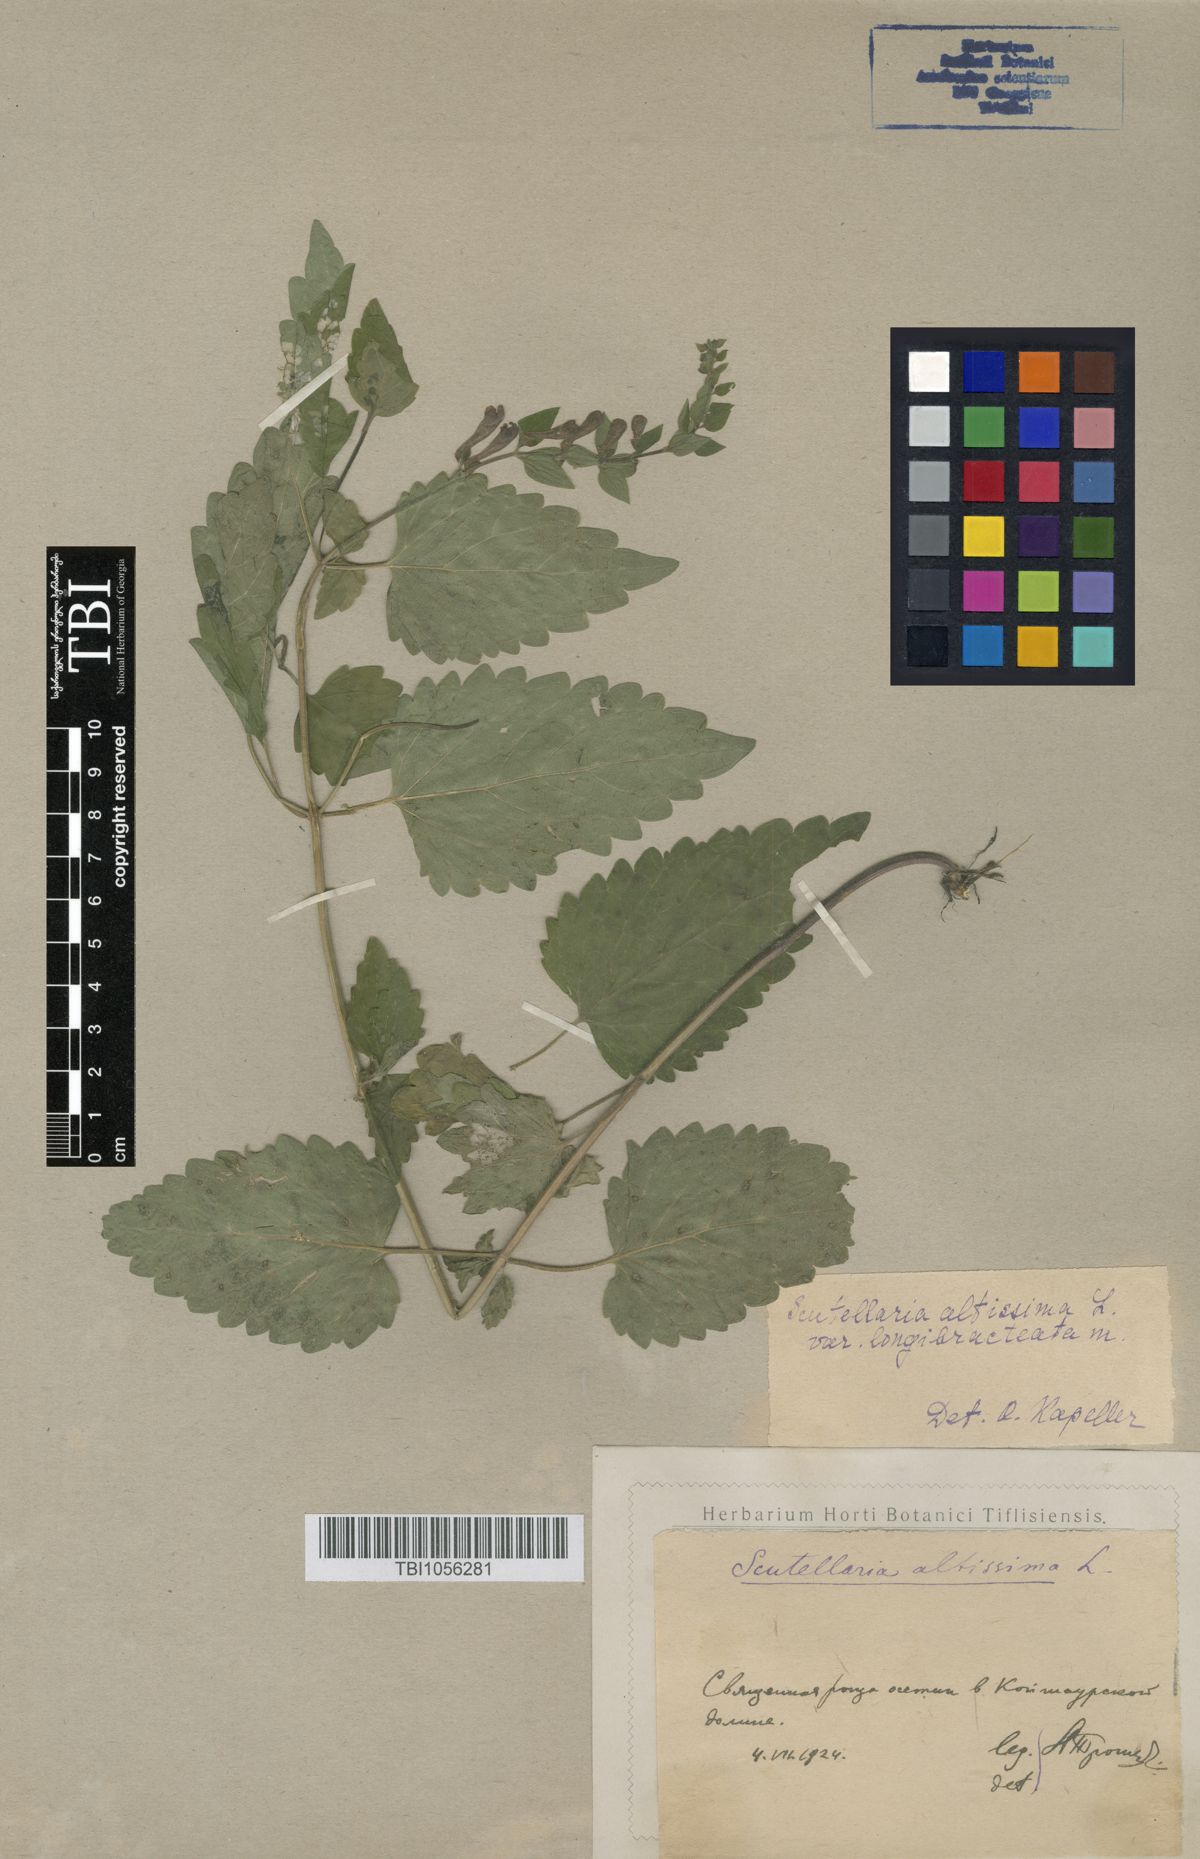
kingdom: Plantae
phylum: Tracheophyta
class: Magnoliopsida
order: Lamiales
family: Lamiaceae
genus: Scutellaria
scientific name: Scutellaria altissima
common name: Somerset skullcap
